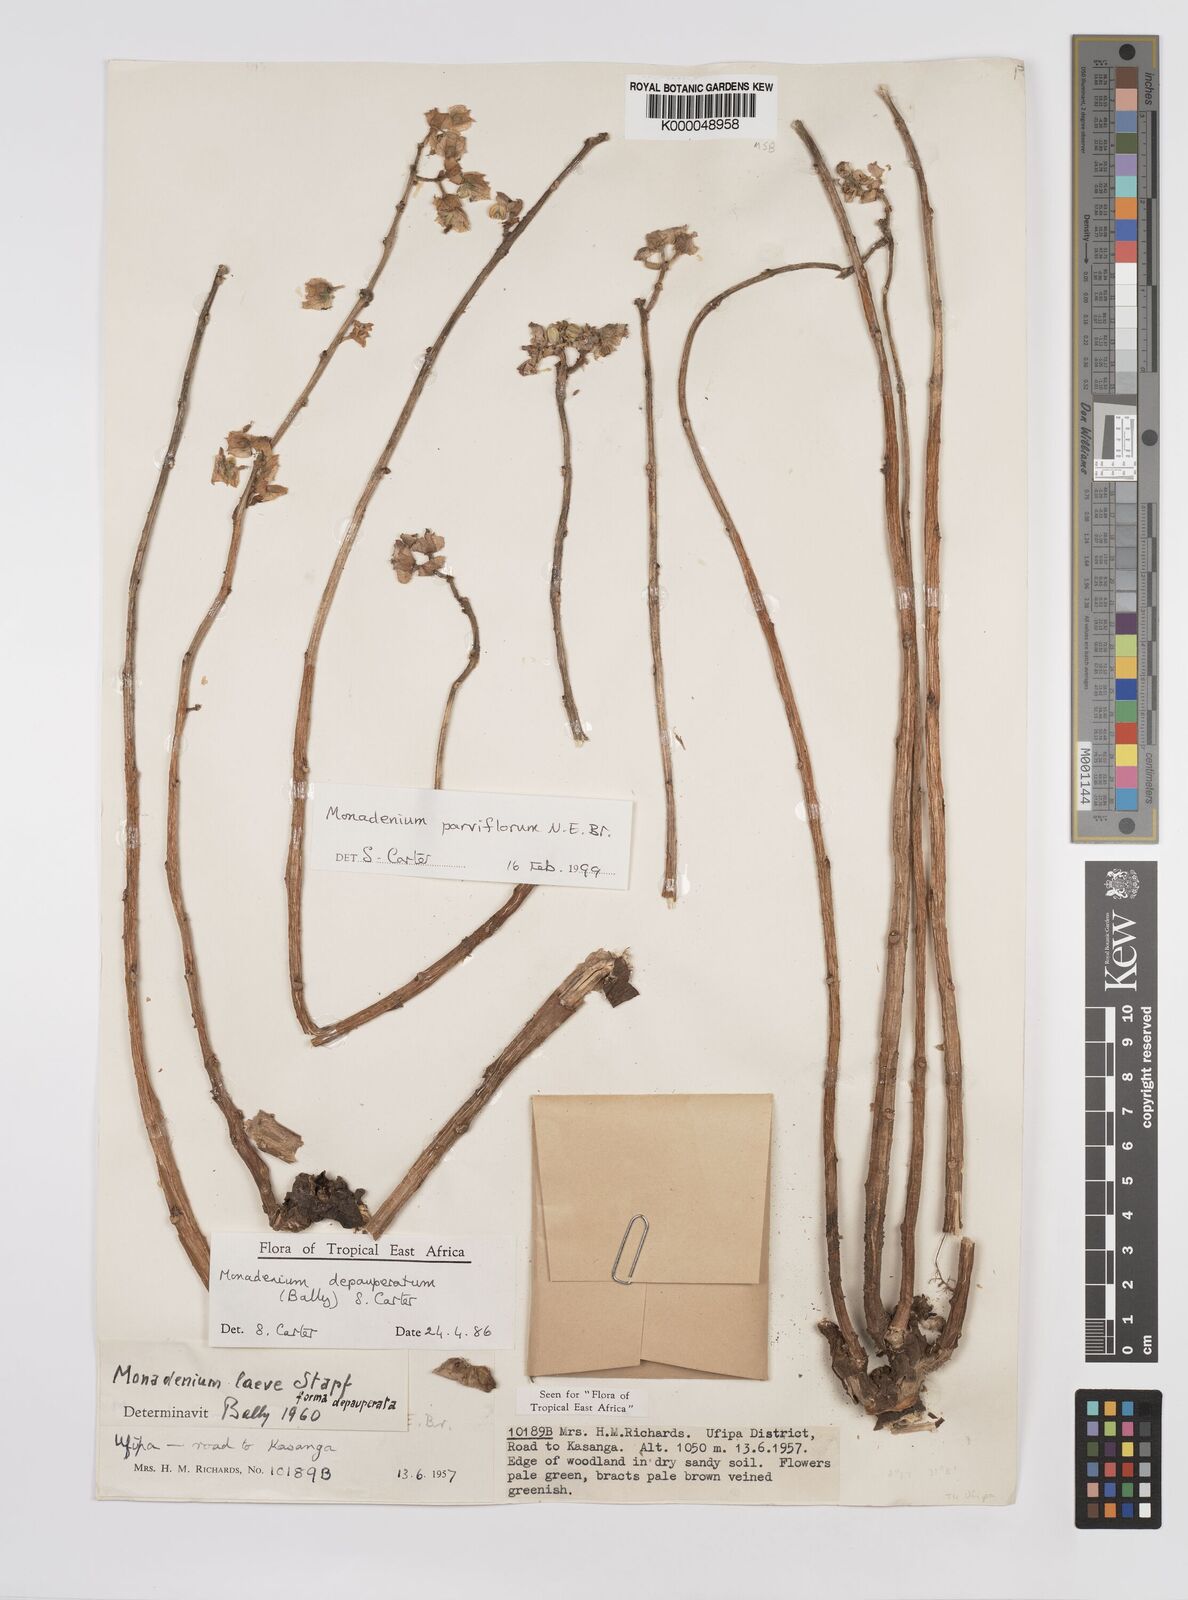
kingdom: Plantae
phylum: Tracheophyta
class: Magnoliopsida
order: Malpighiales
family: Euphorbiaceae
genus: Euphorbia
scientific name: Euphorbia neoparviflora
